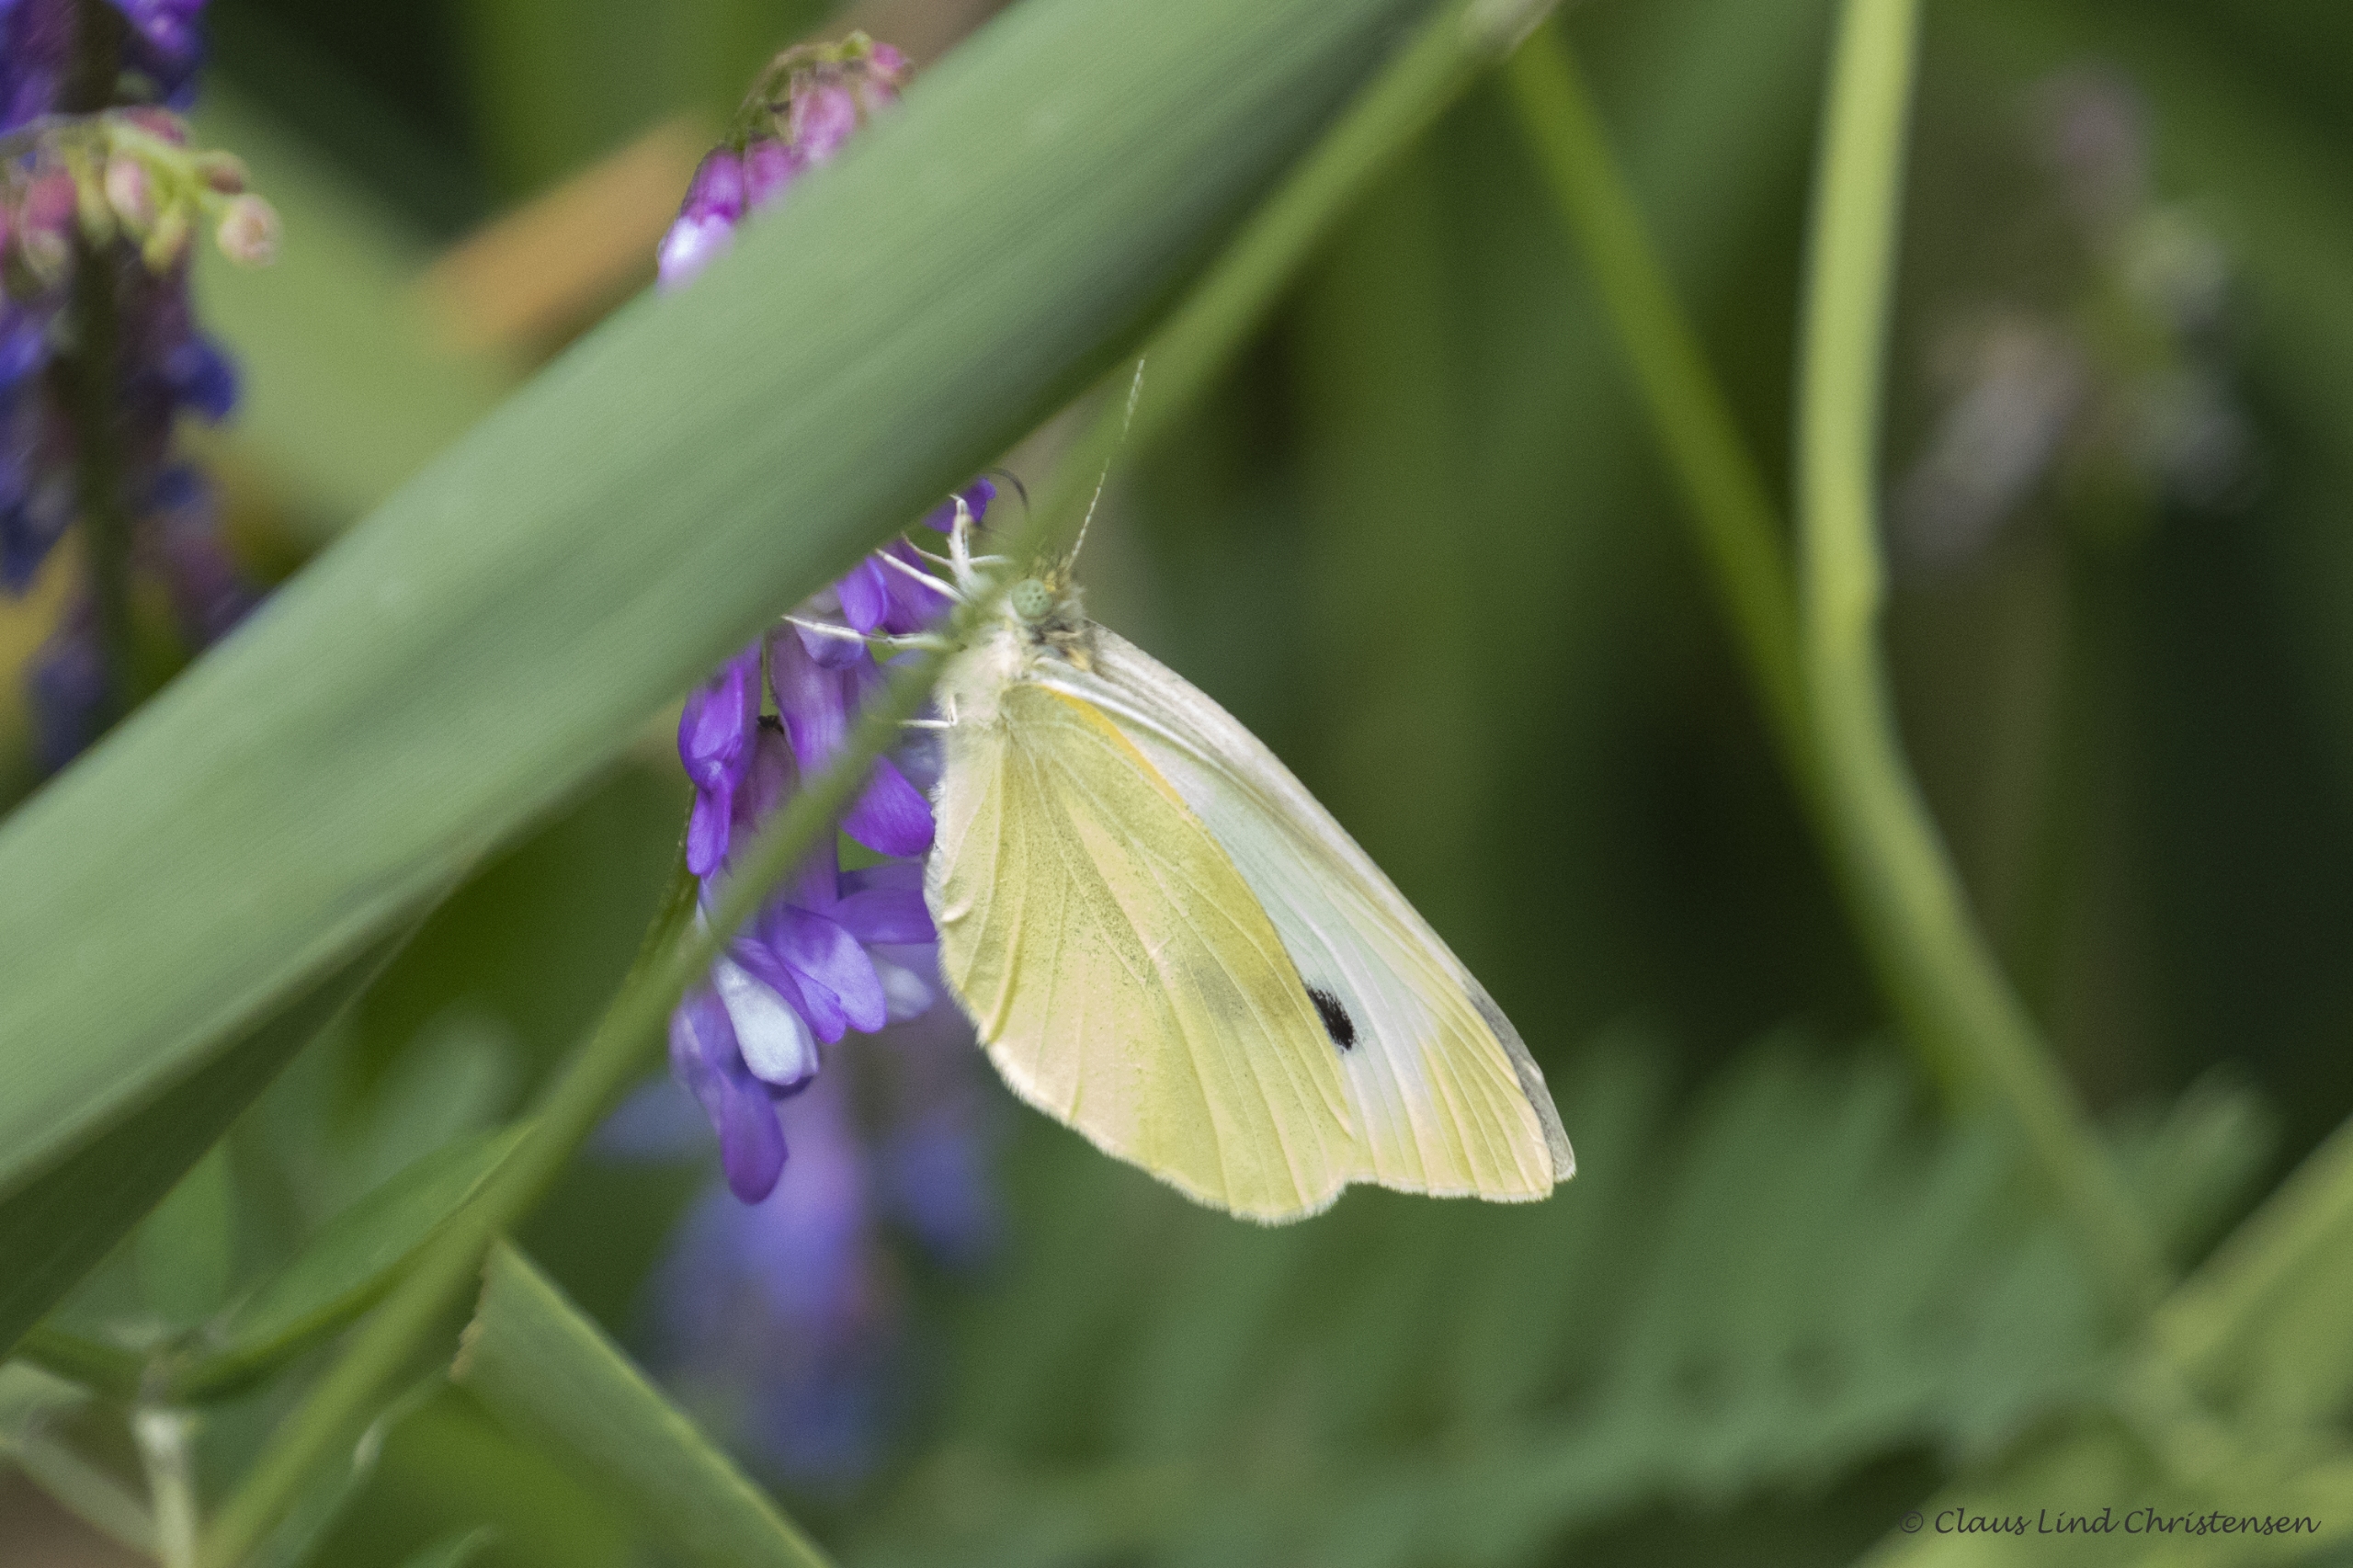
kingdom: Animalia
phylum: Arthropoda
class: Insecta
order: Lepidoptera
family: Pieridae
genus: Pieris
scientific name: Pieris brassicae
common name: Stor kålsommerfugl
